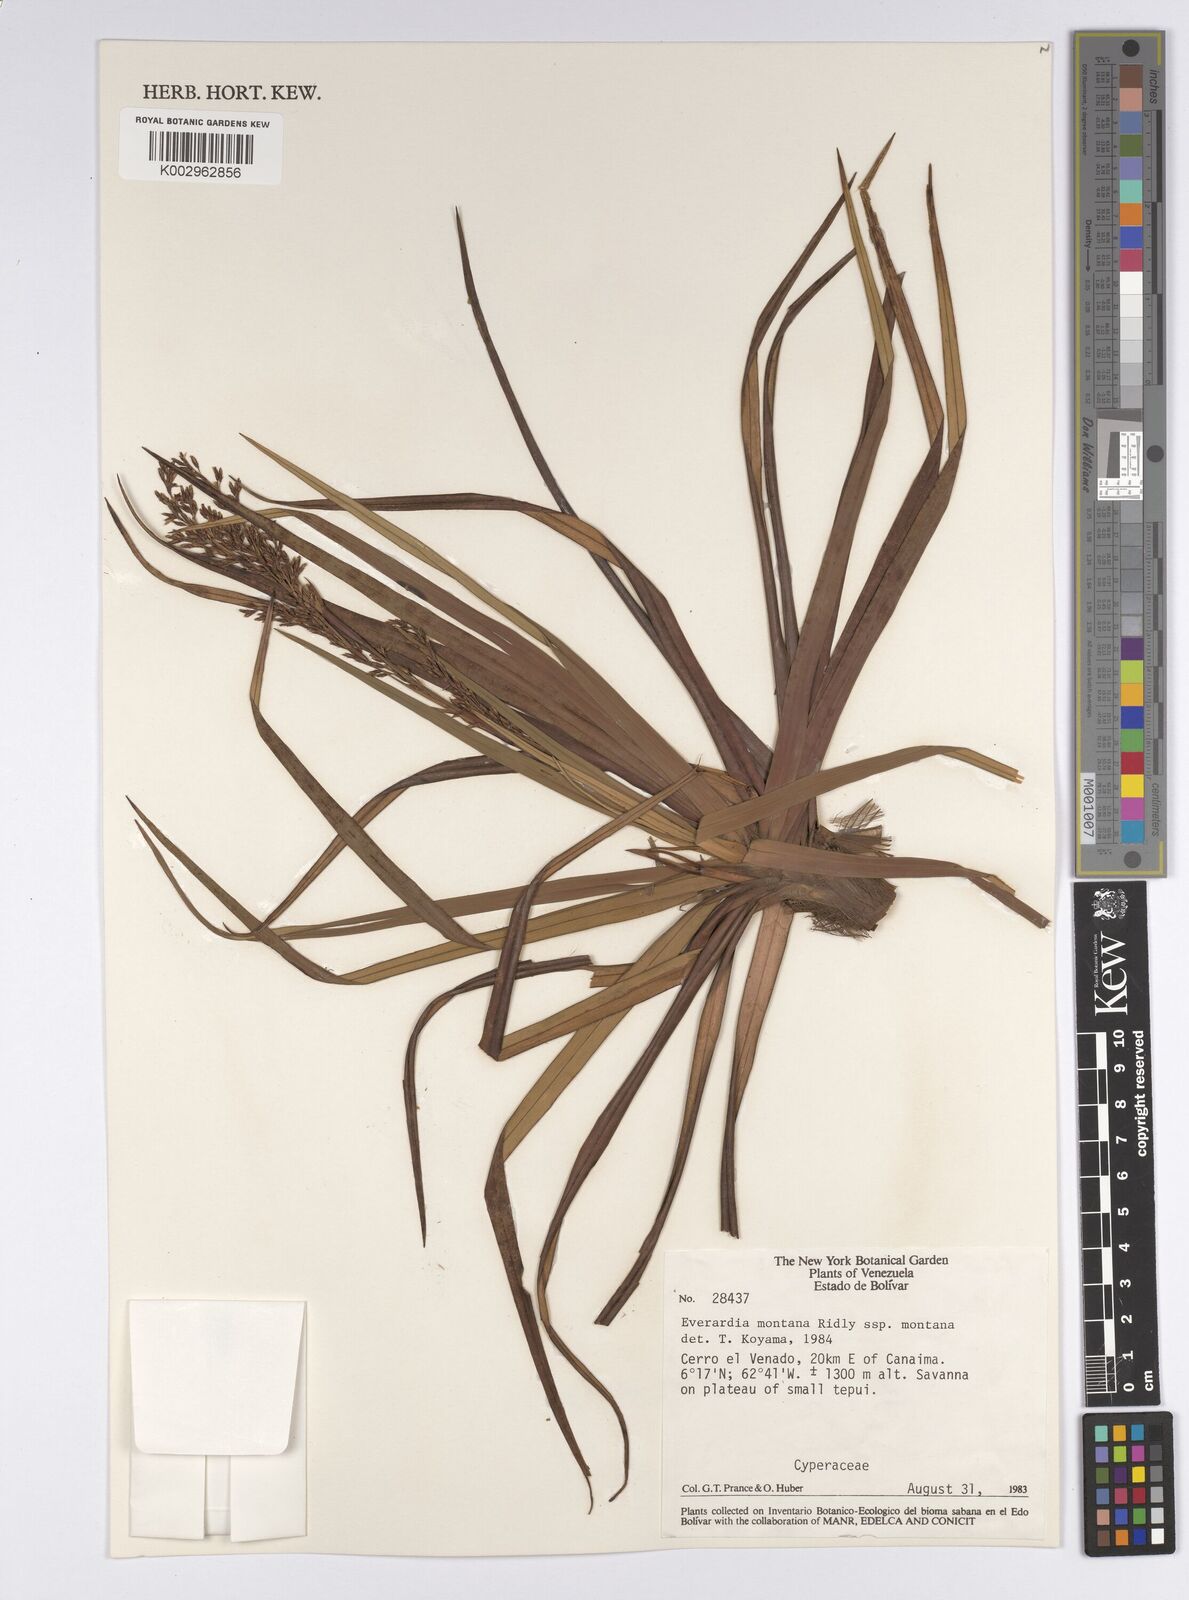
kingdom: Plantae
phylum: Tracheophyta
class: Liliopsida
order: Poales
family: Cyperaceae
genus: Cephalocarpus
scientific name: Cephalocarpus montanus
